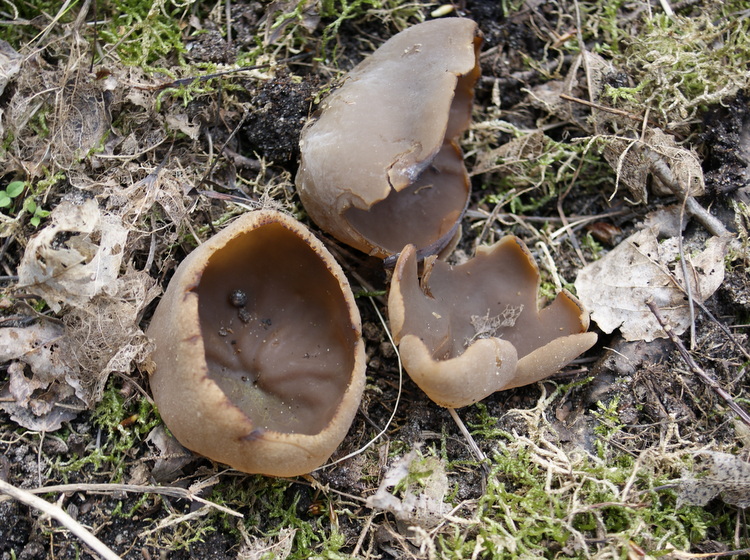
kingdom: Fungi
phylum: Ascomycota
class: Pezizomycetes
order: Pezizales
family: Morchellaceae
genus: Disciotis
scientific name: Disciotis venosa
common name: klor-bægermorkel
